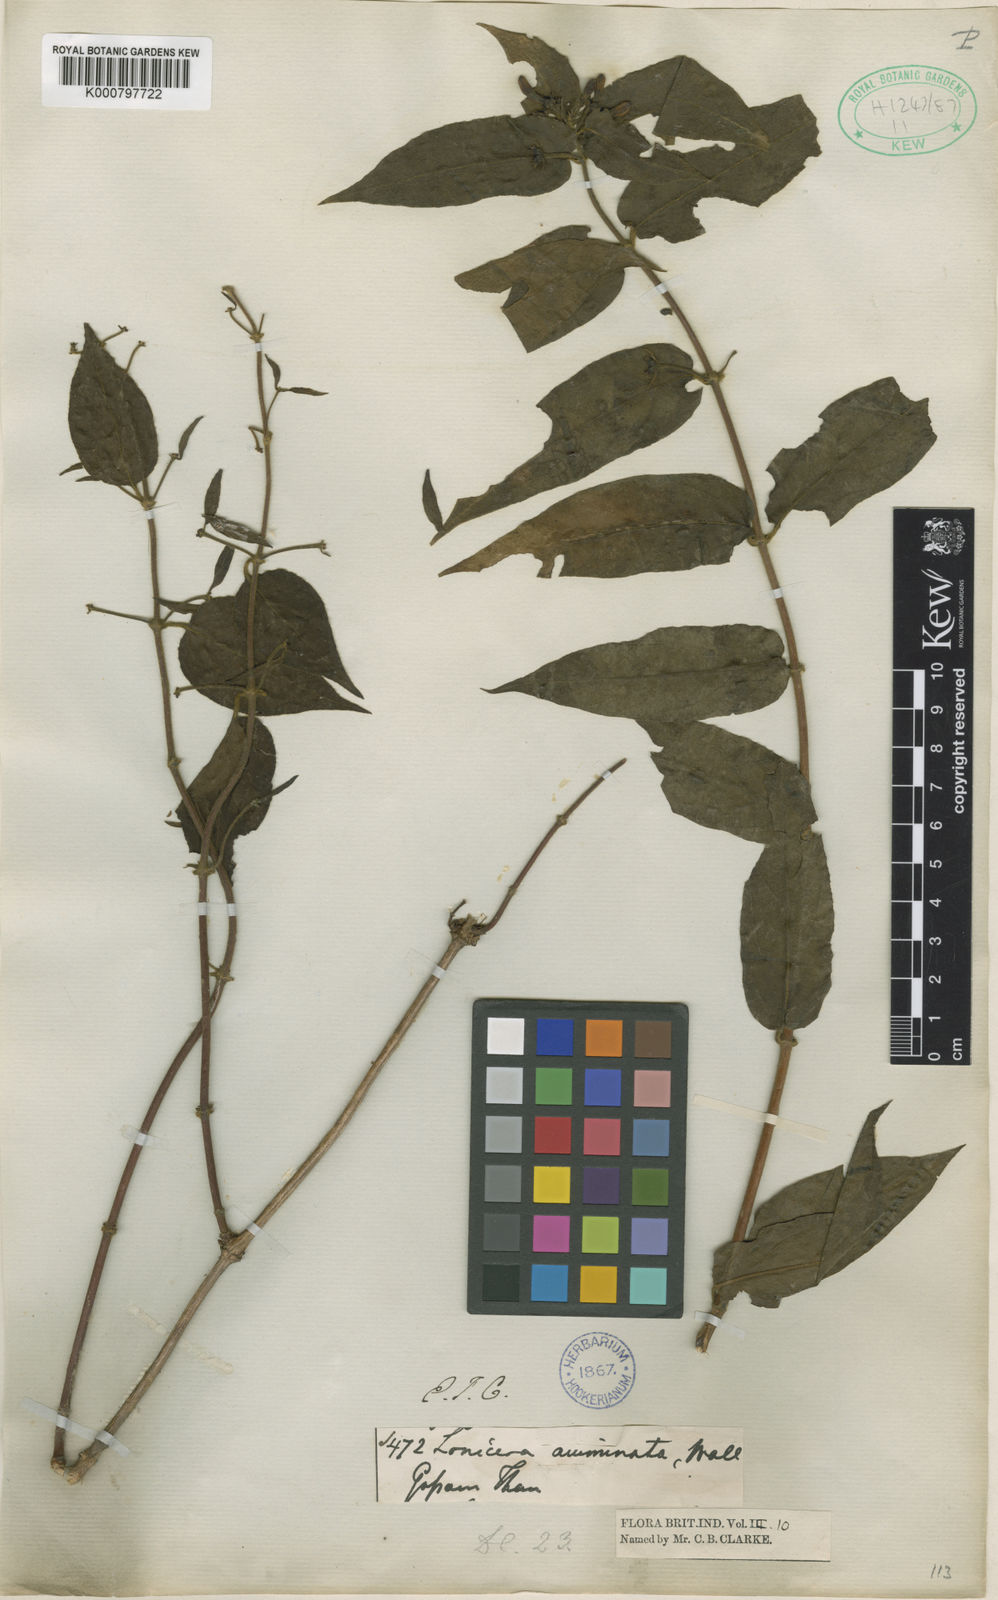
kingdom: Plantae
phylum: Tracheophyta
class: Magnoliopsida
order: Dipsacales
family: Caprifoliaceae
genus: Lonicera
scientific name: Lonicera acuminata
